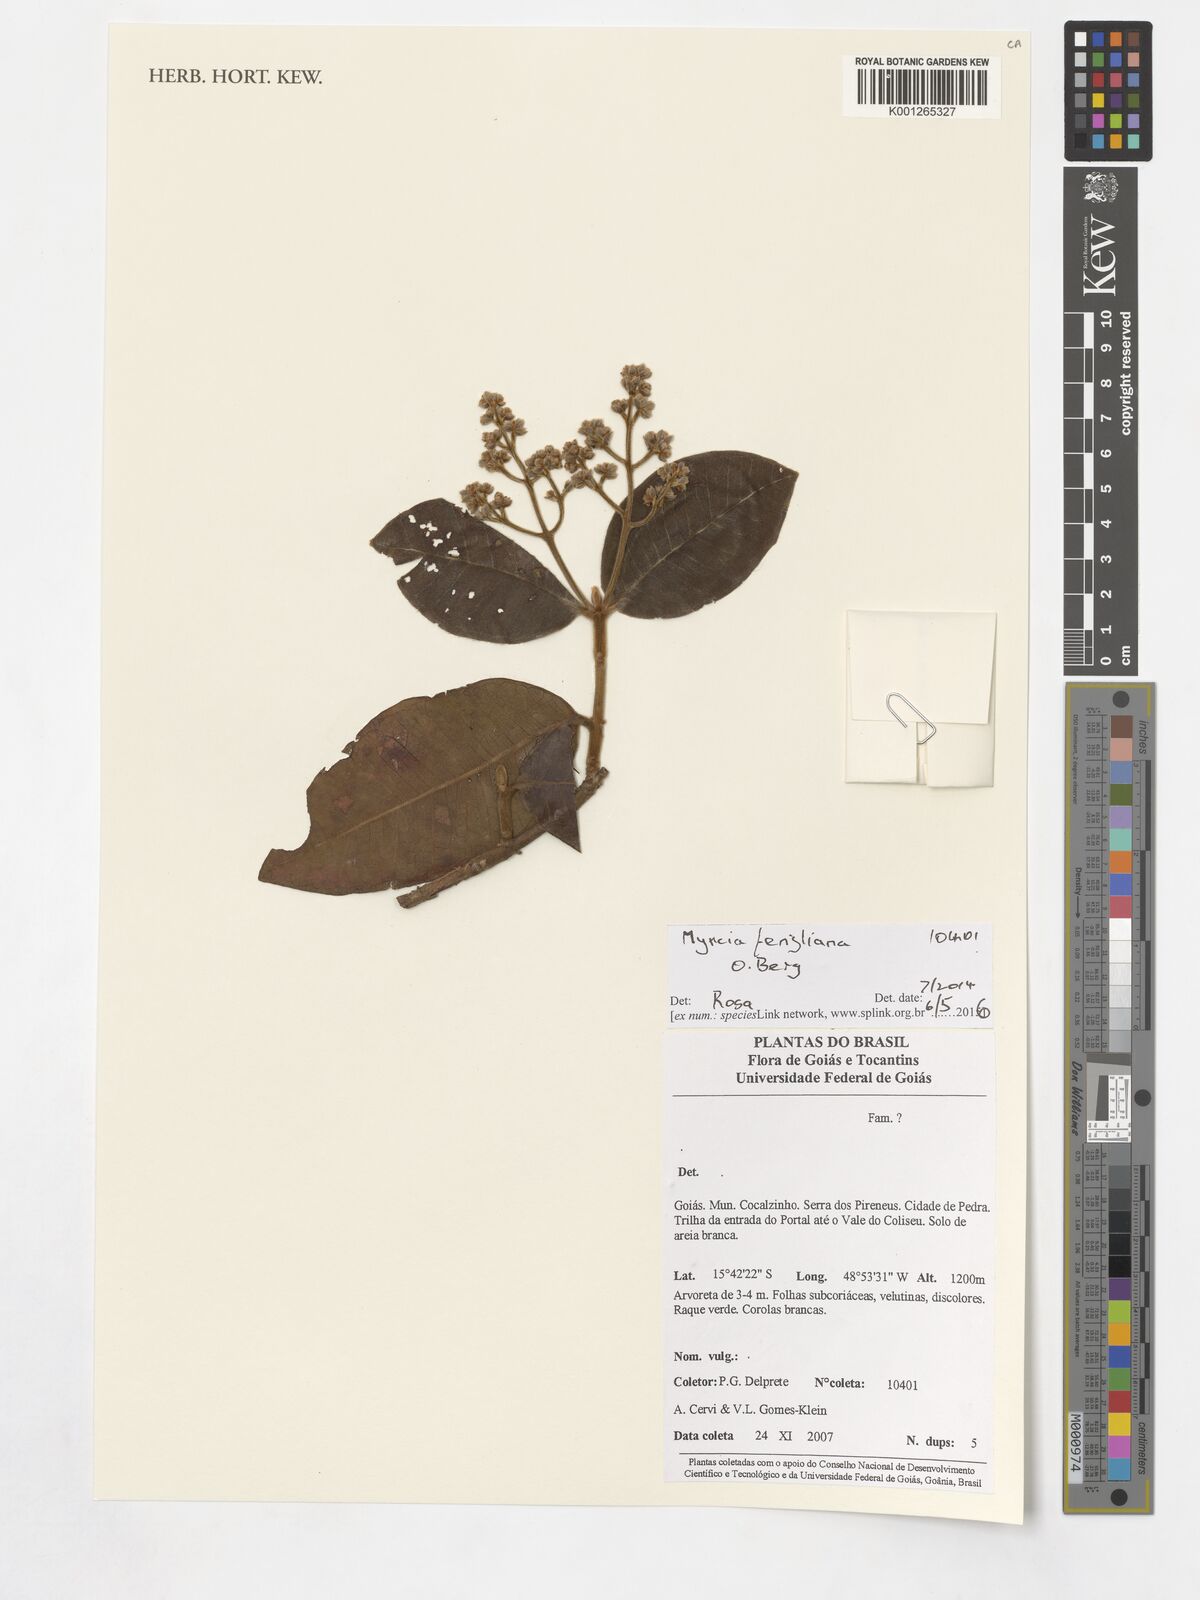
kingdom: Plantae
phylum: Tracheophyta
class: Magnoliopsida
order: Myrtales
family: Myrtaceae
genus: Myrcia
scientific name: Myrcia fenzliana
